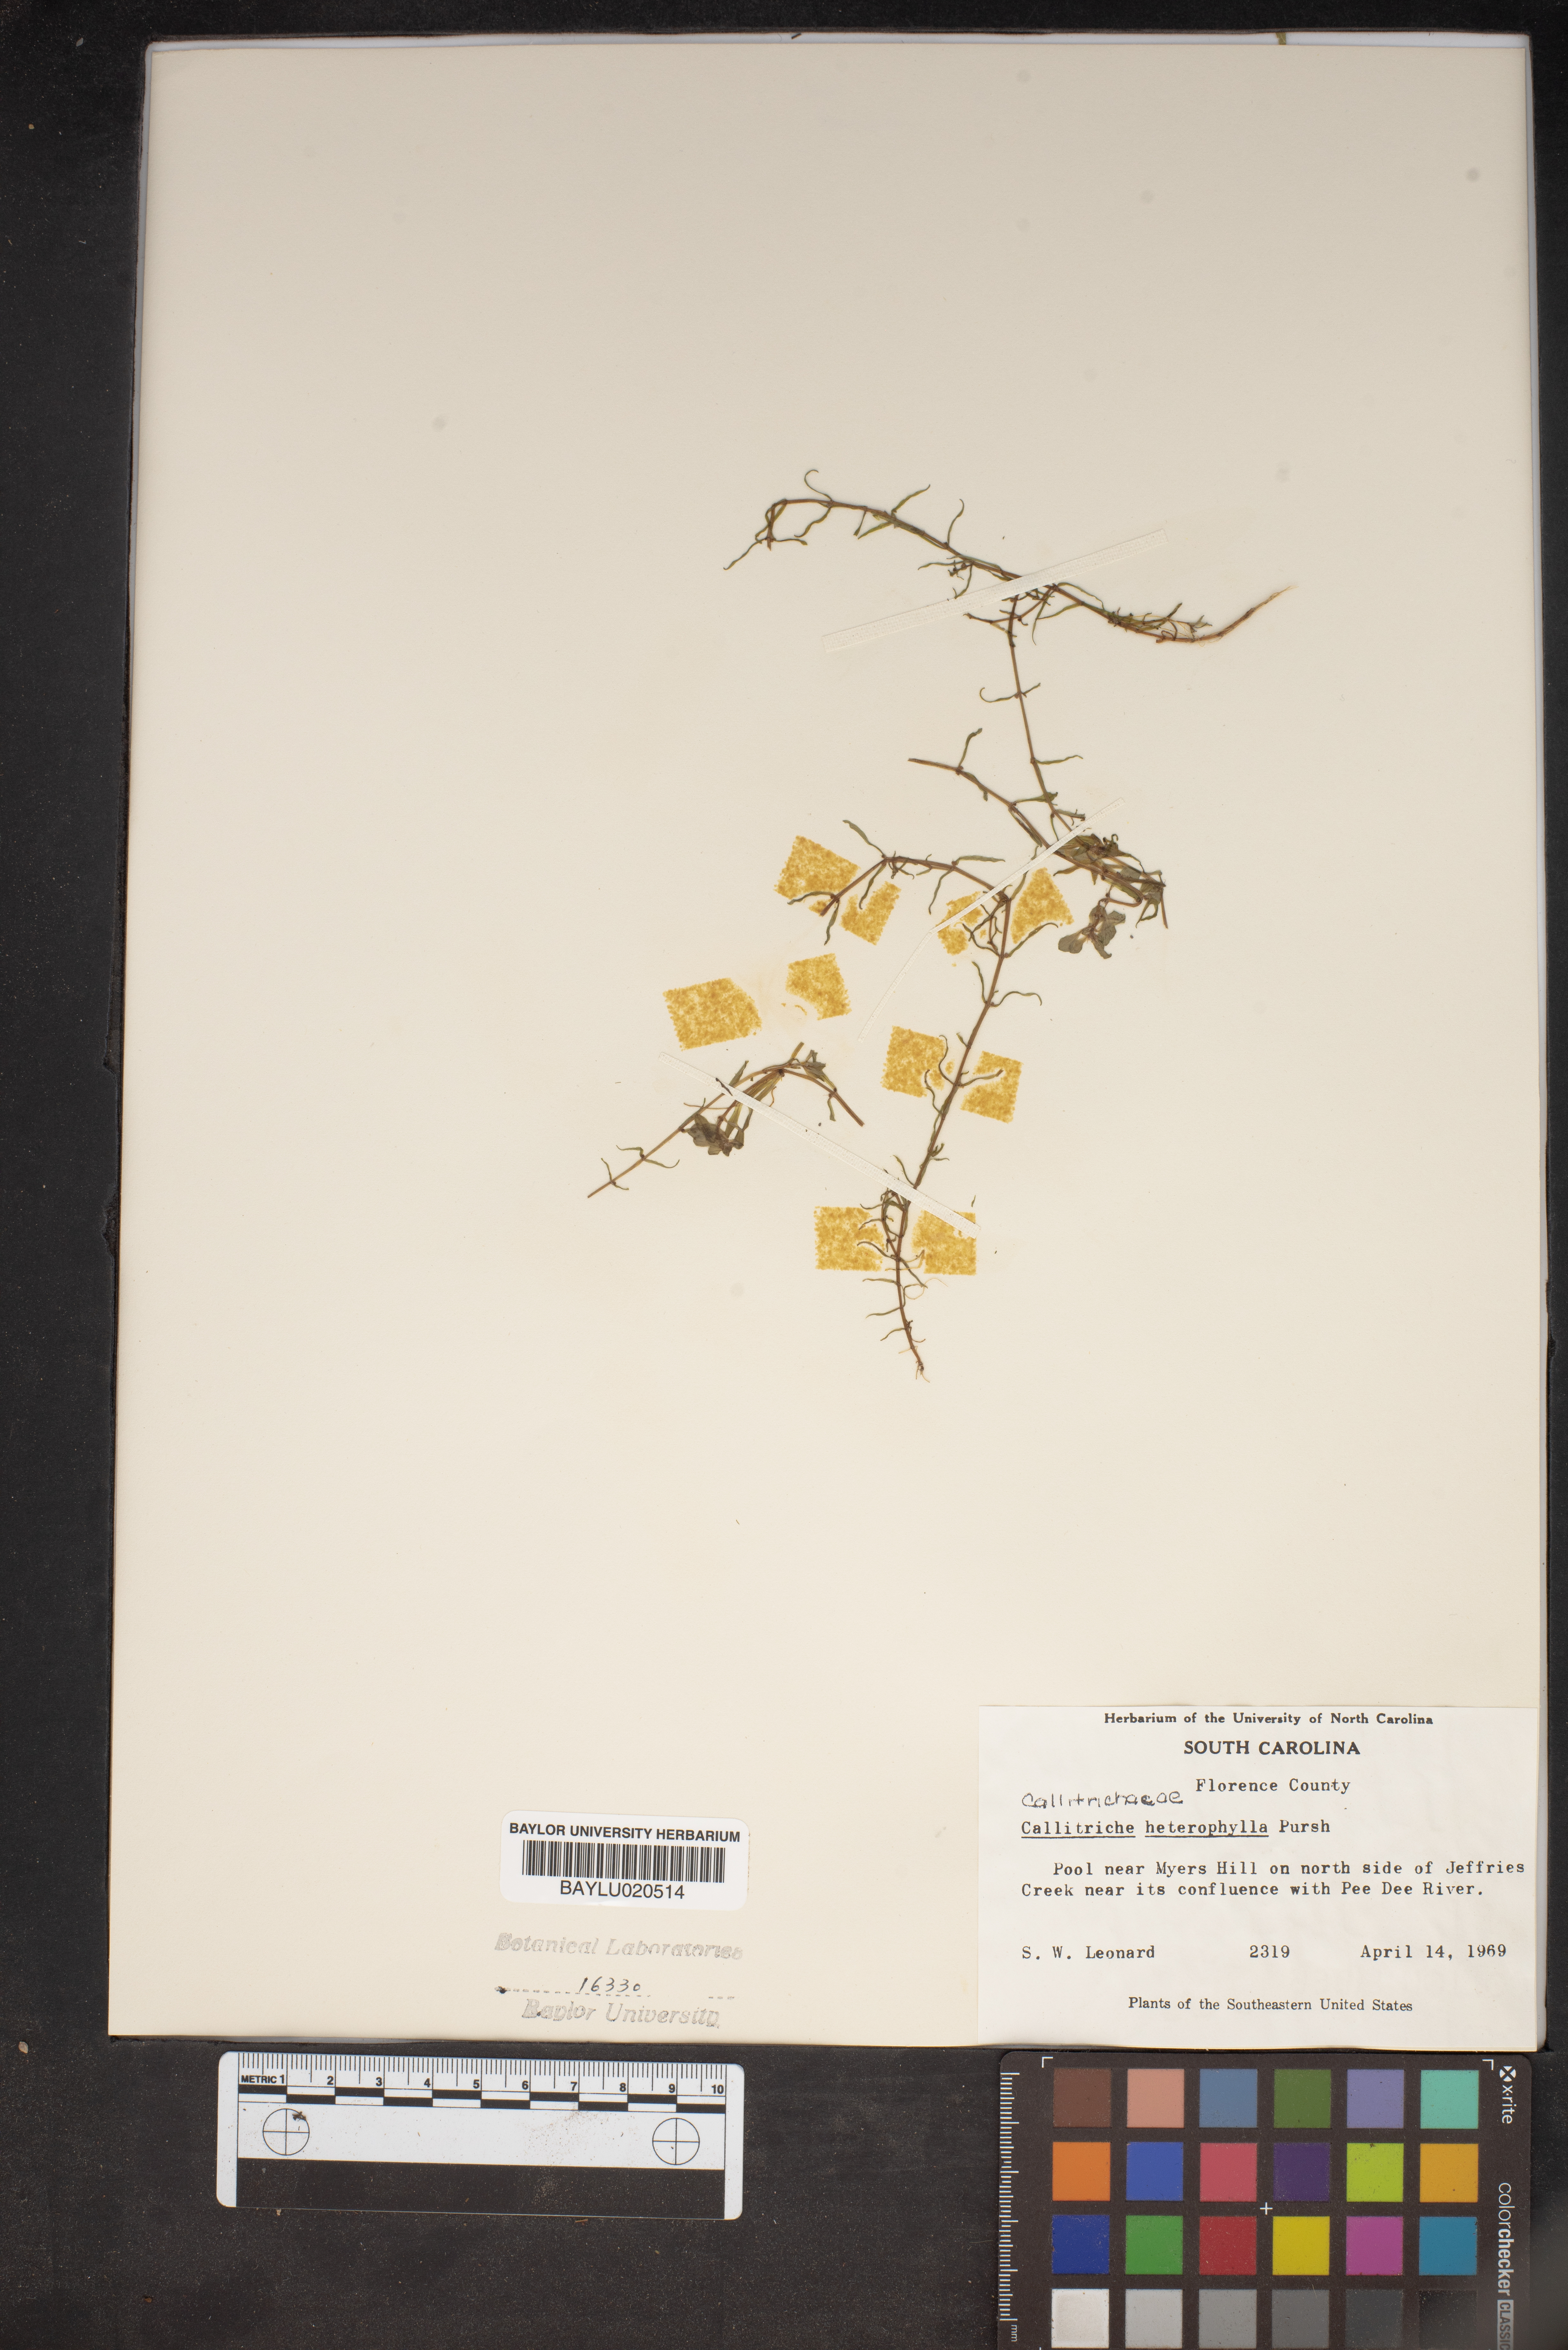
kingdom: Plantae
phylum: Tracheophyta
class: Magnoliopsida
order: Lamiales
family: Plantaginaceae
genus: Callitriche
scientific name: Callitriche heterophylla
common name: Two-headed water-starwort
